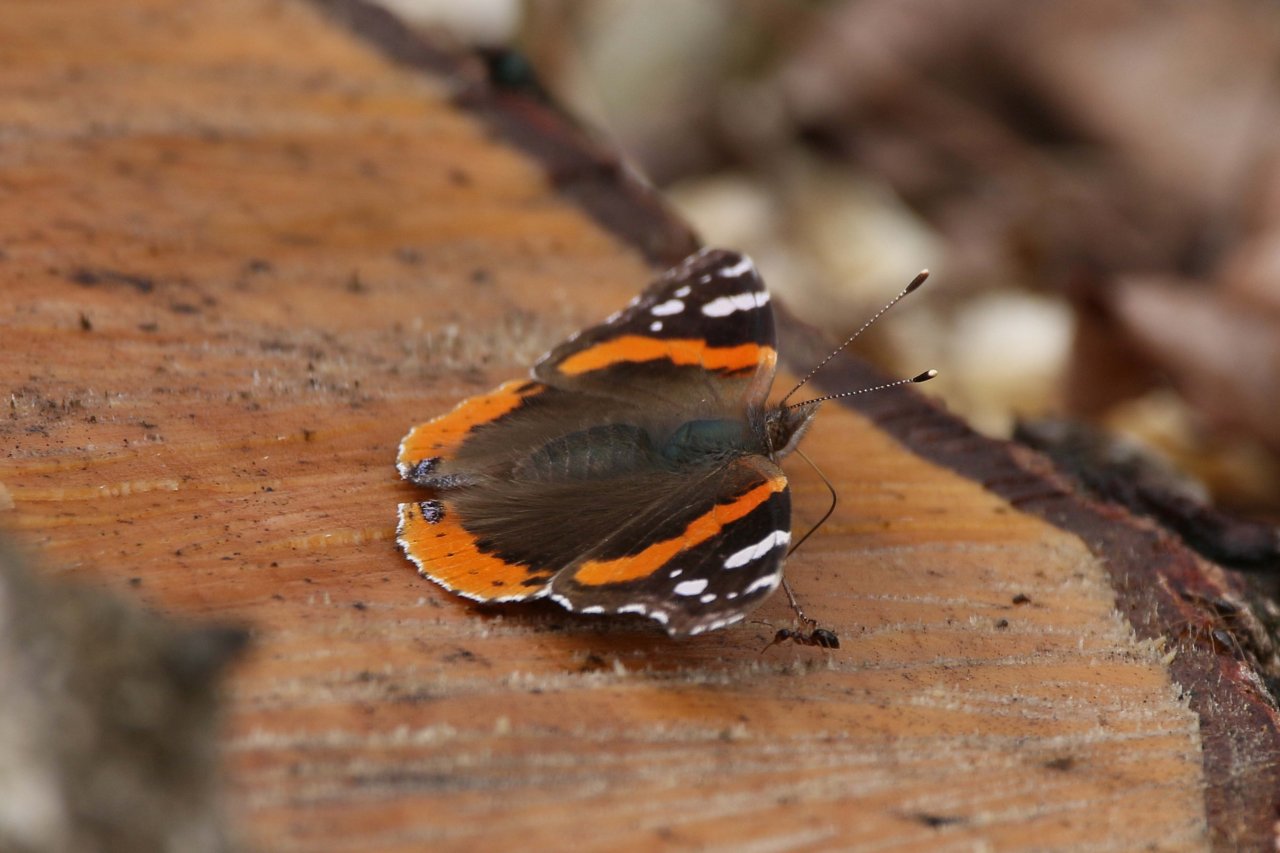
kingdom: Animalia
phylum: Arthropoda
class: Insecta
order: Lepidoptera
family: Nymphalidae
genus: Vanessa
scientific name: Vanessa atalanta
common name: Red Admiral
